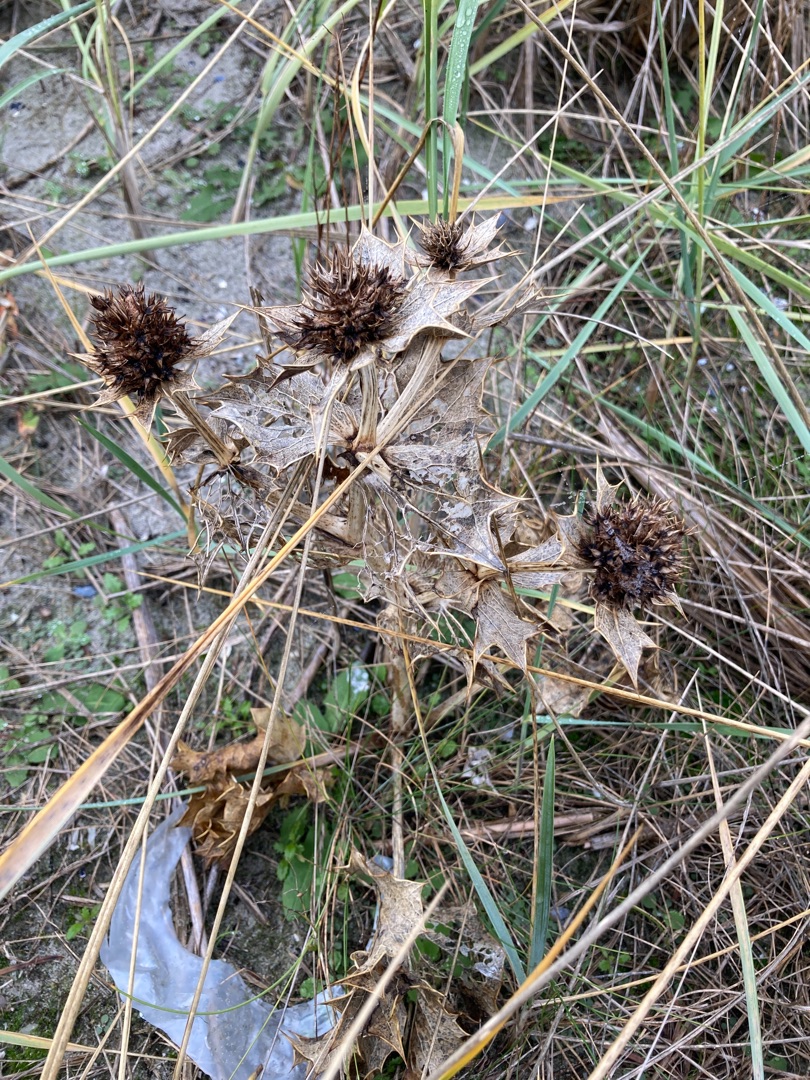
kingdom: Plantae
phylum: Tracheophyta
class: Magnoliopsida
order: Apiales
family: Apiaceae
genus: Eryngium
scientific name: Eryngium maritimum
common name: Strand-mandstro
